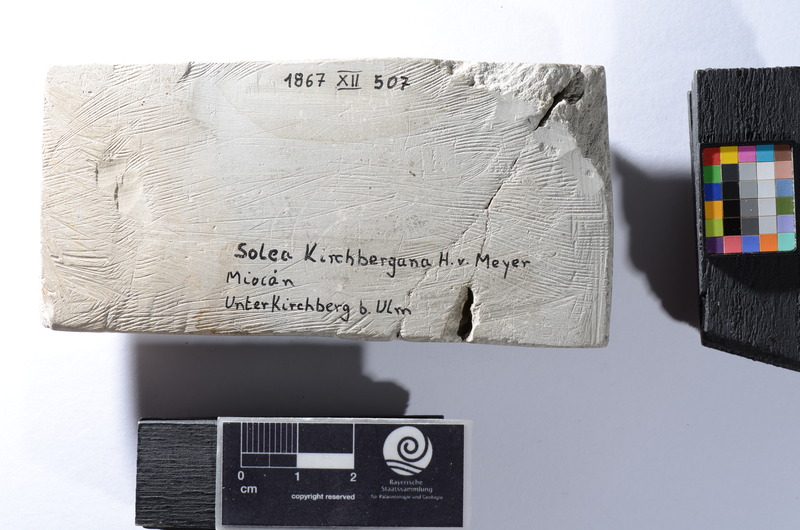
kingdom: Animalia
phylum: Chordata
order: Pleuronectiformes
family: Soleidae
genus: Solea
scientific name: Solea
